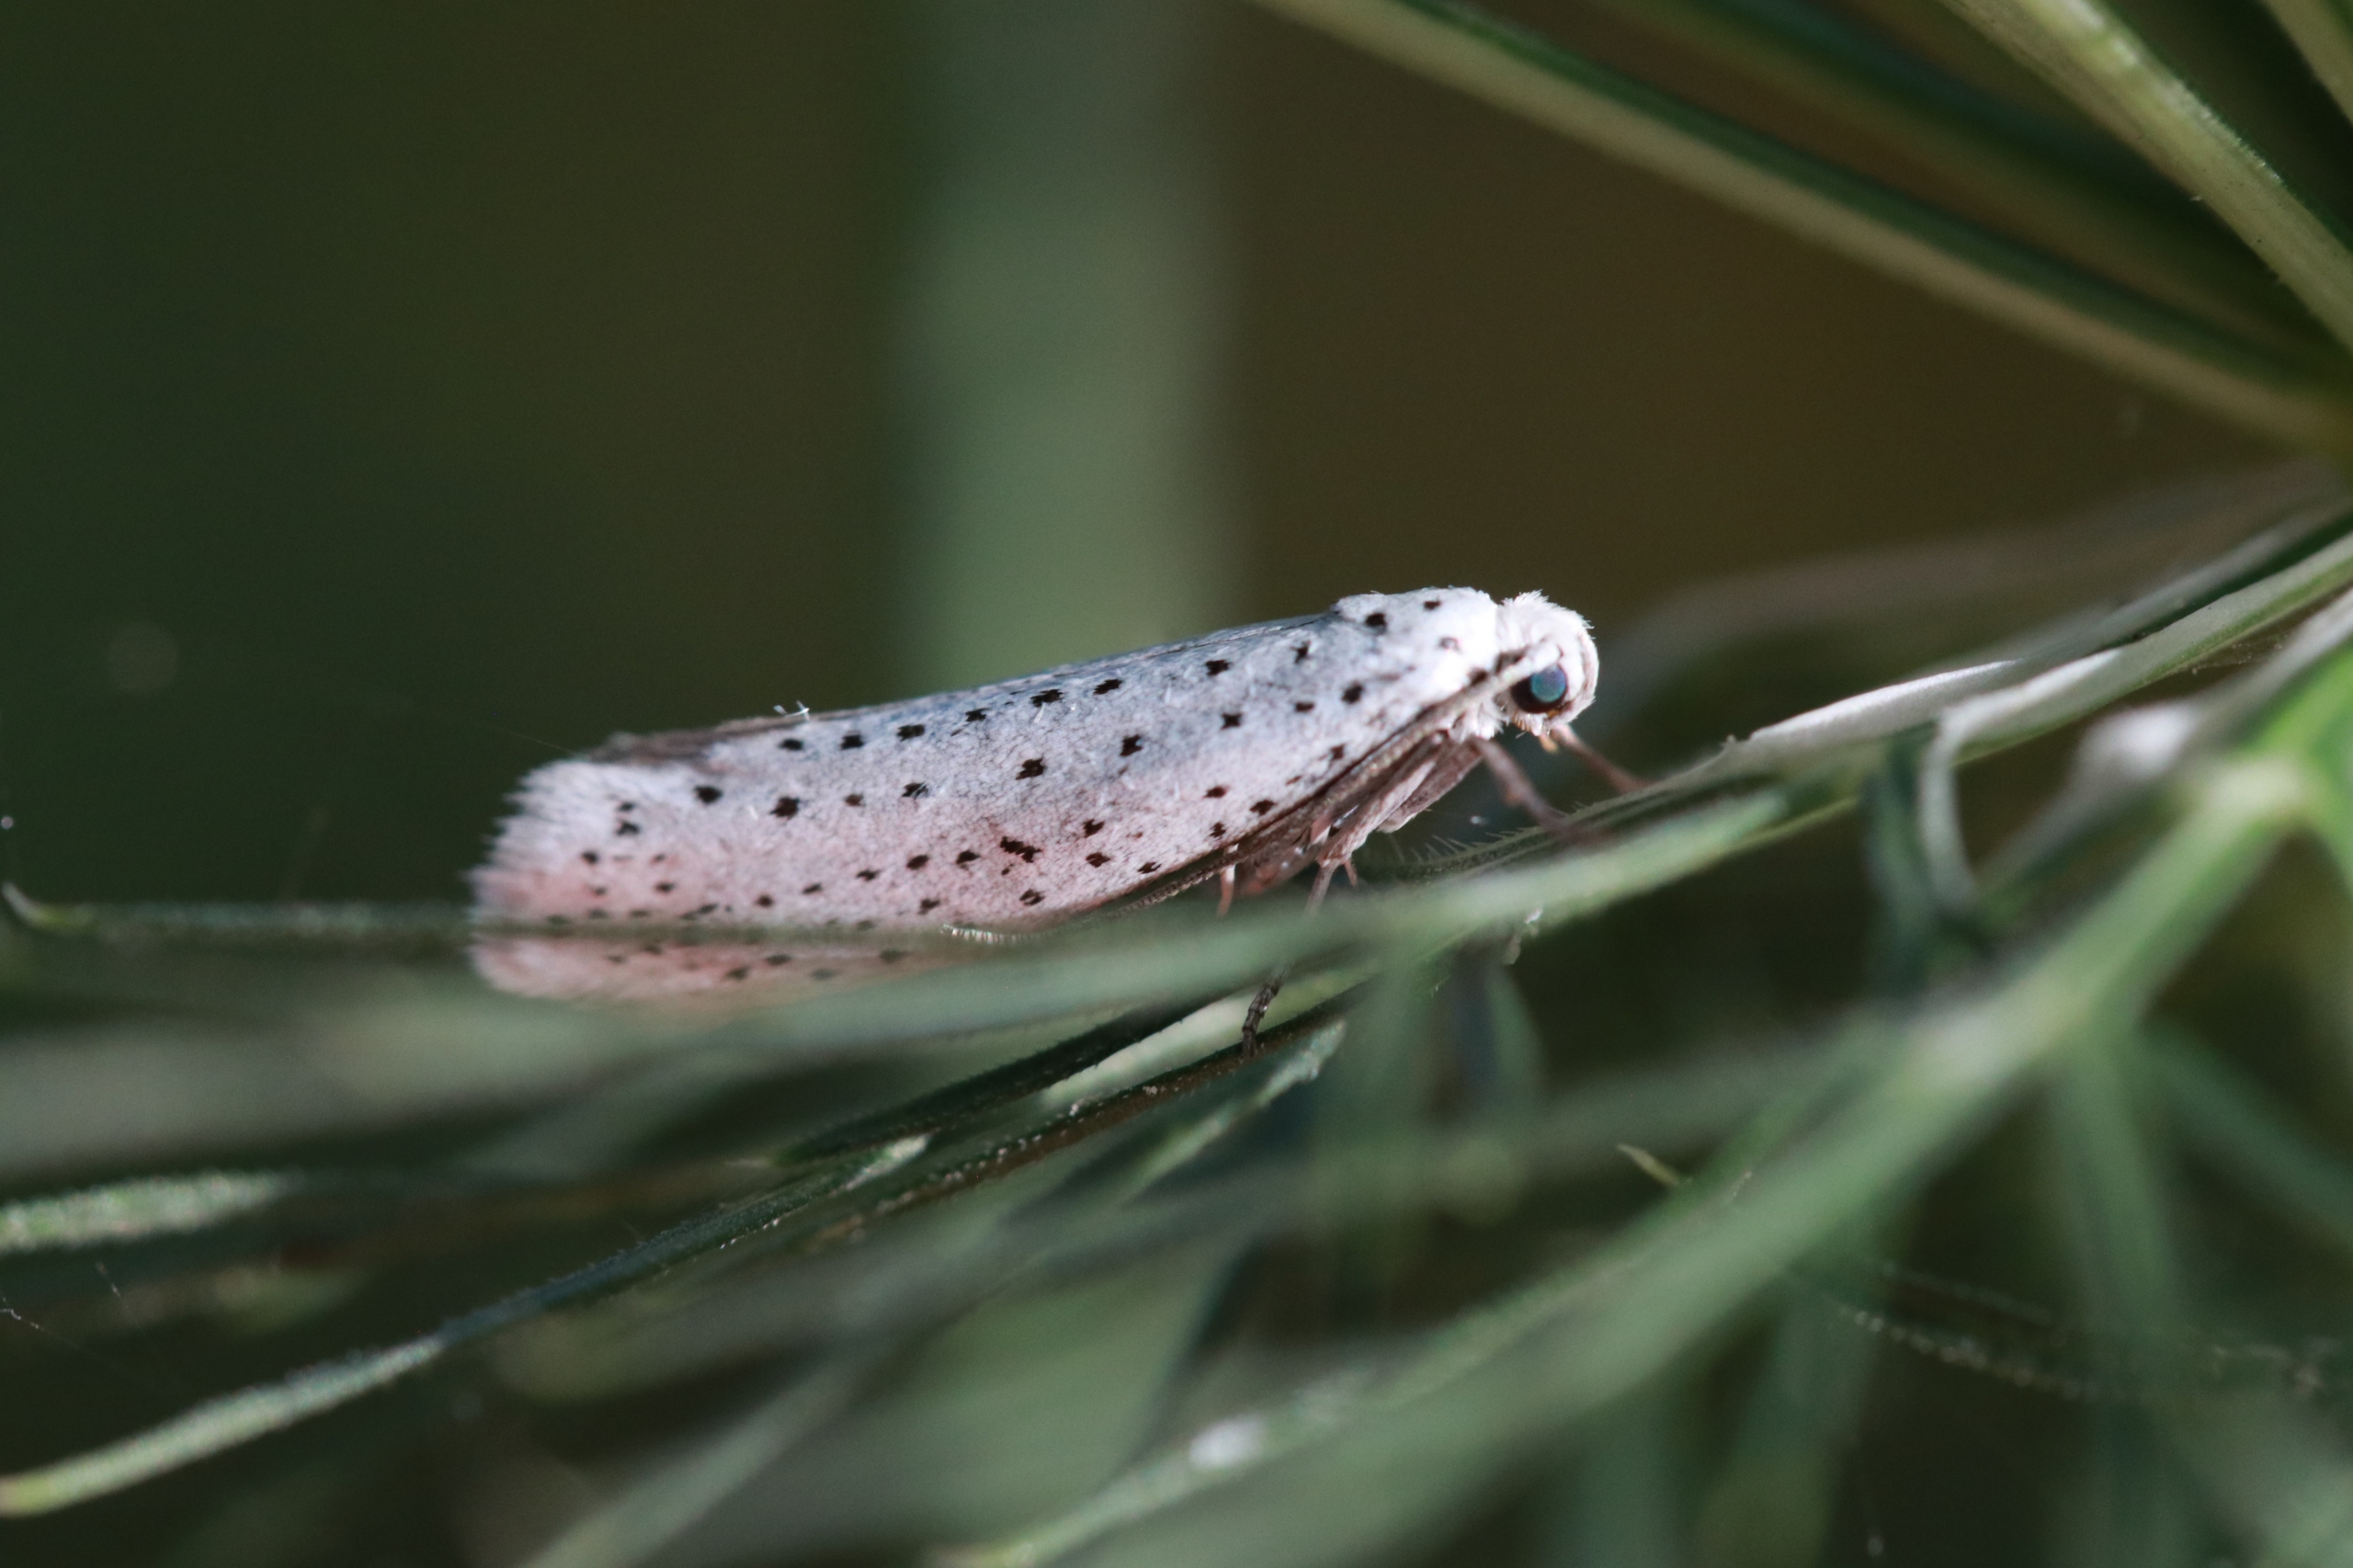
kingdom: Animalia
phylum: Arthropoda
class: Insecta
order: Lepidoptera
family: Yponomeutidae
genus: Yponomeuta
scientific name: Yponomeuta evonymella
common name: Hægspindemøl
